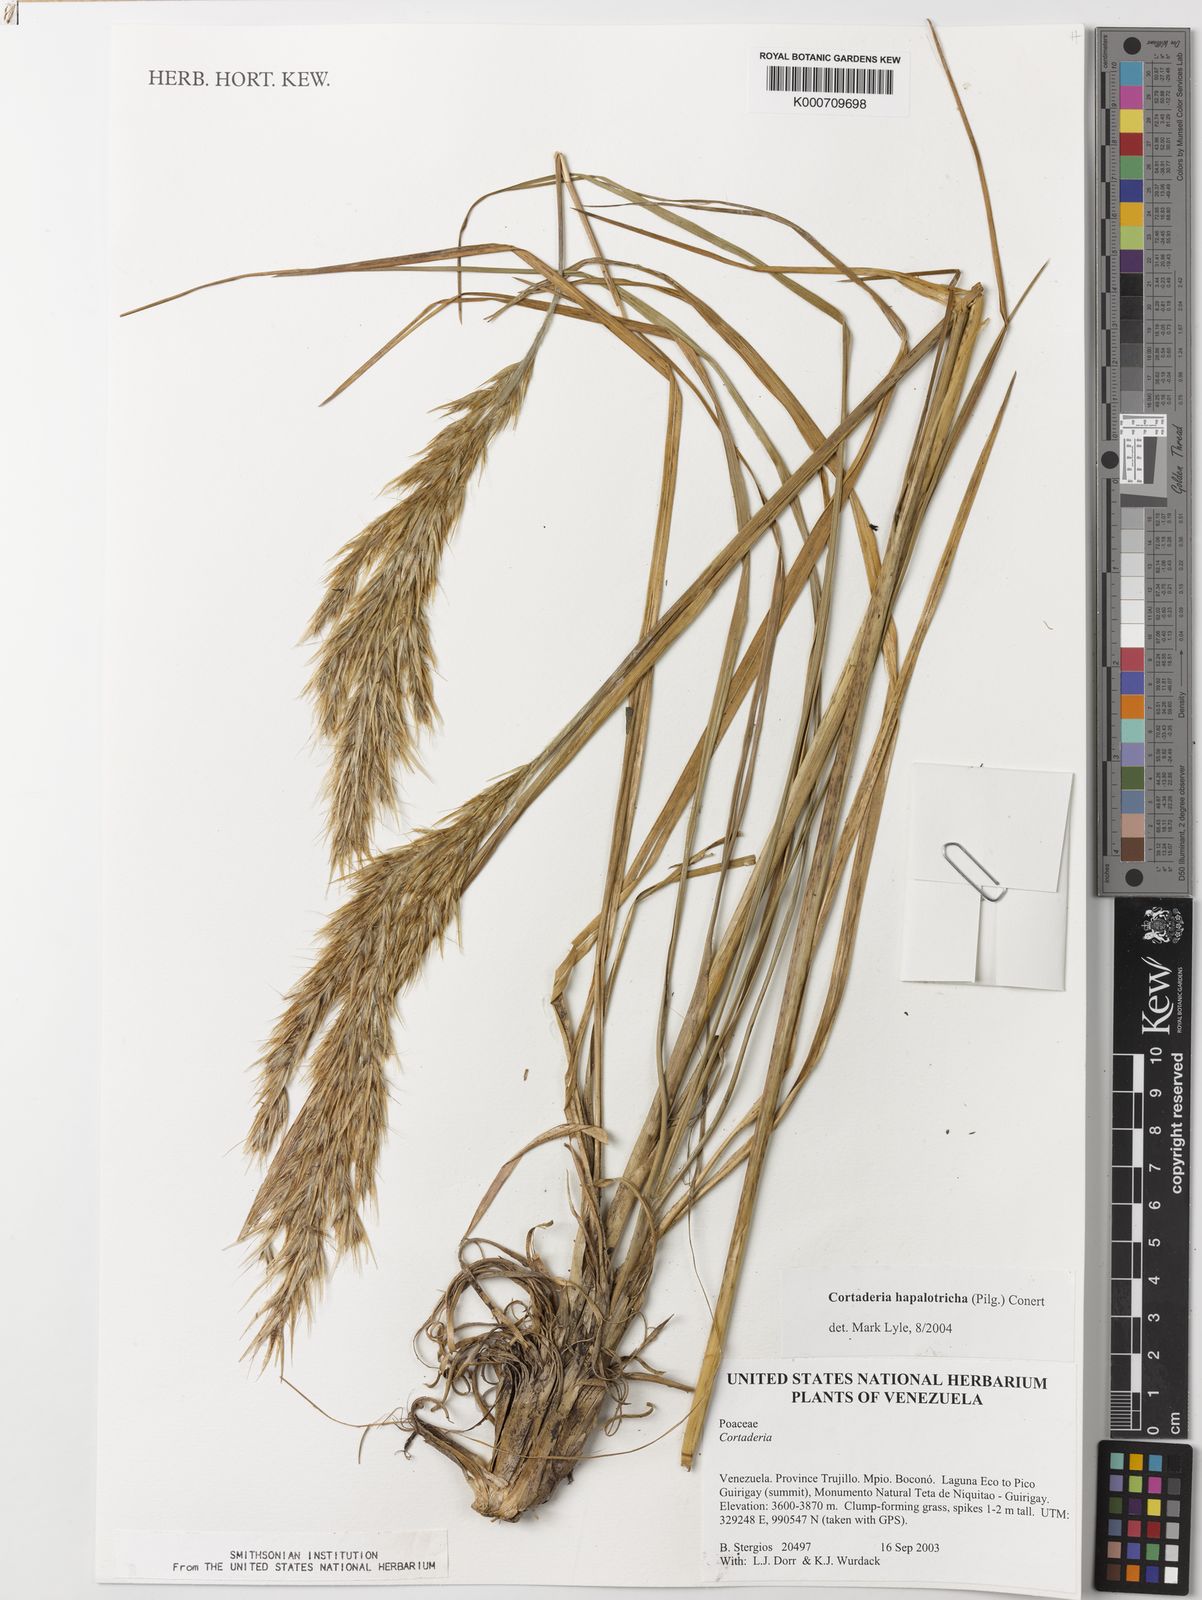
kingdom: Plantae
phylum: Tracheophyta
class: Liliopsida
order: Poales
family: Poaceae
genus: Cortaderia
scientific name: Cortaderia hapalotricha
